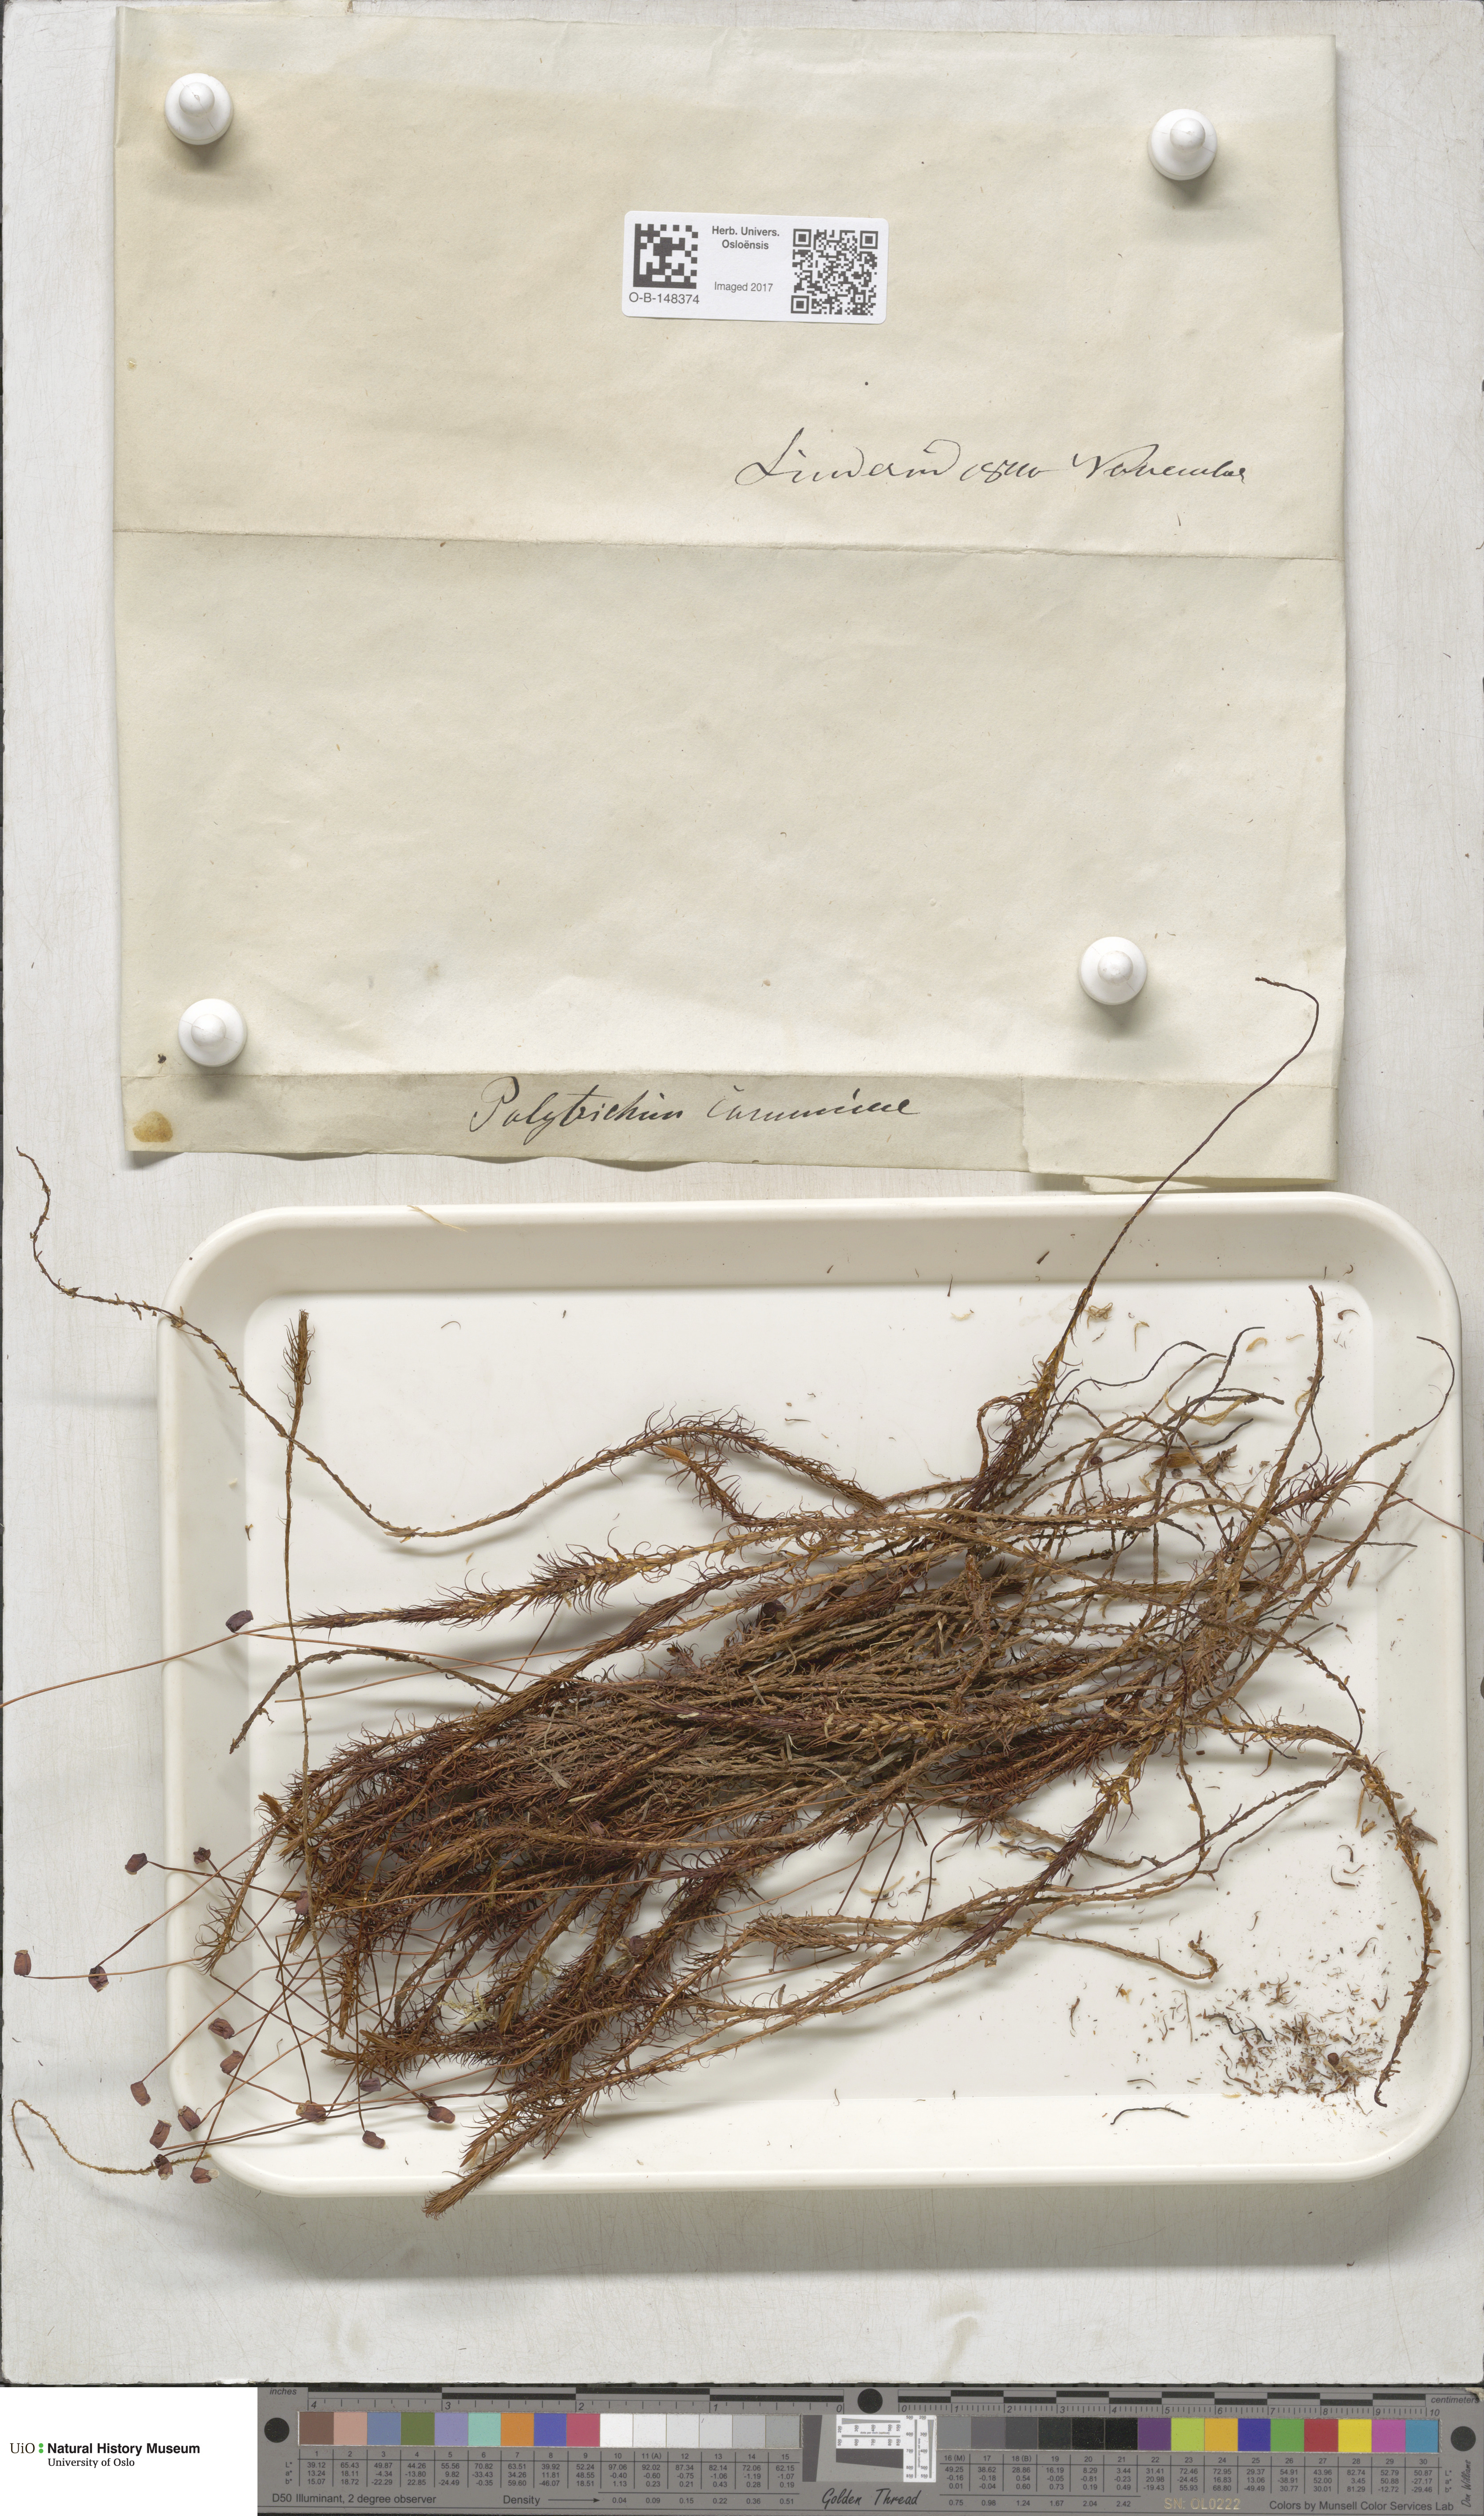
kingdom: Plantae
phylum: Bryophyta
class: Polytrichopsida
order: Polytrichales
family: Polytrichaceae
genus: Polytrichum
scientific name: Polytrichum commune
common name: Common haircap
